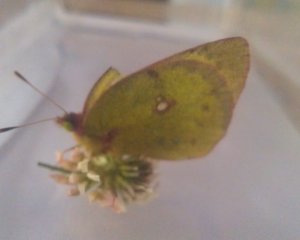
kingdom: Animalia
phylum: Arthropoda
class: Insecta
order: Lepidoptera
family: Pieridae
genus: Colias
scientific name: Colias philodice
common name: Clouded Sulphur
